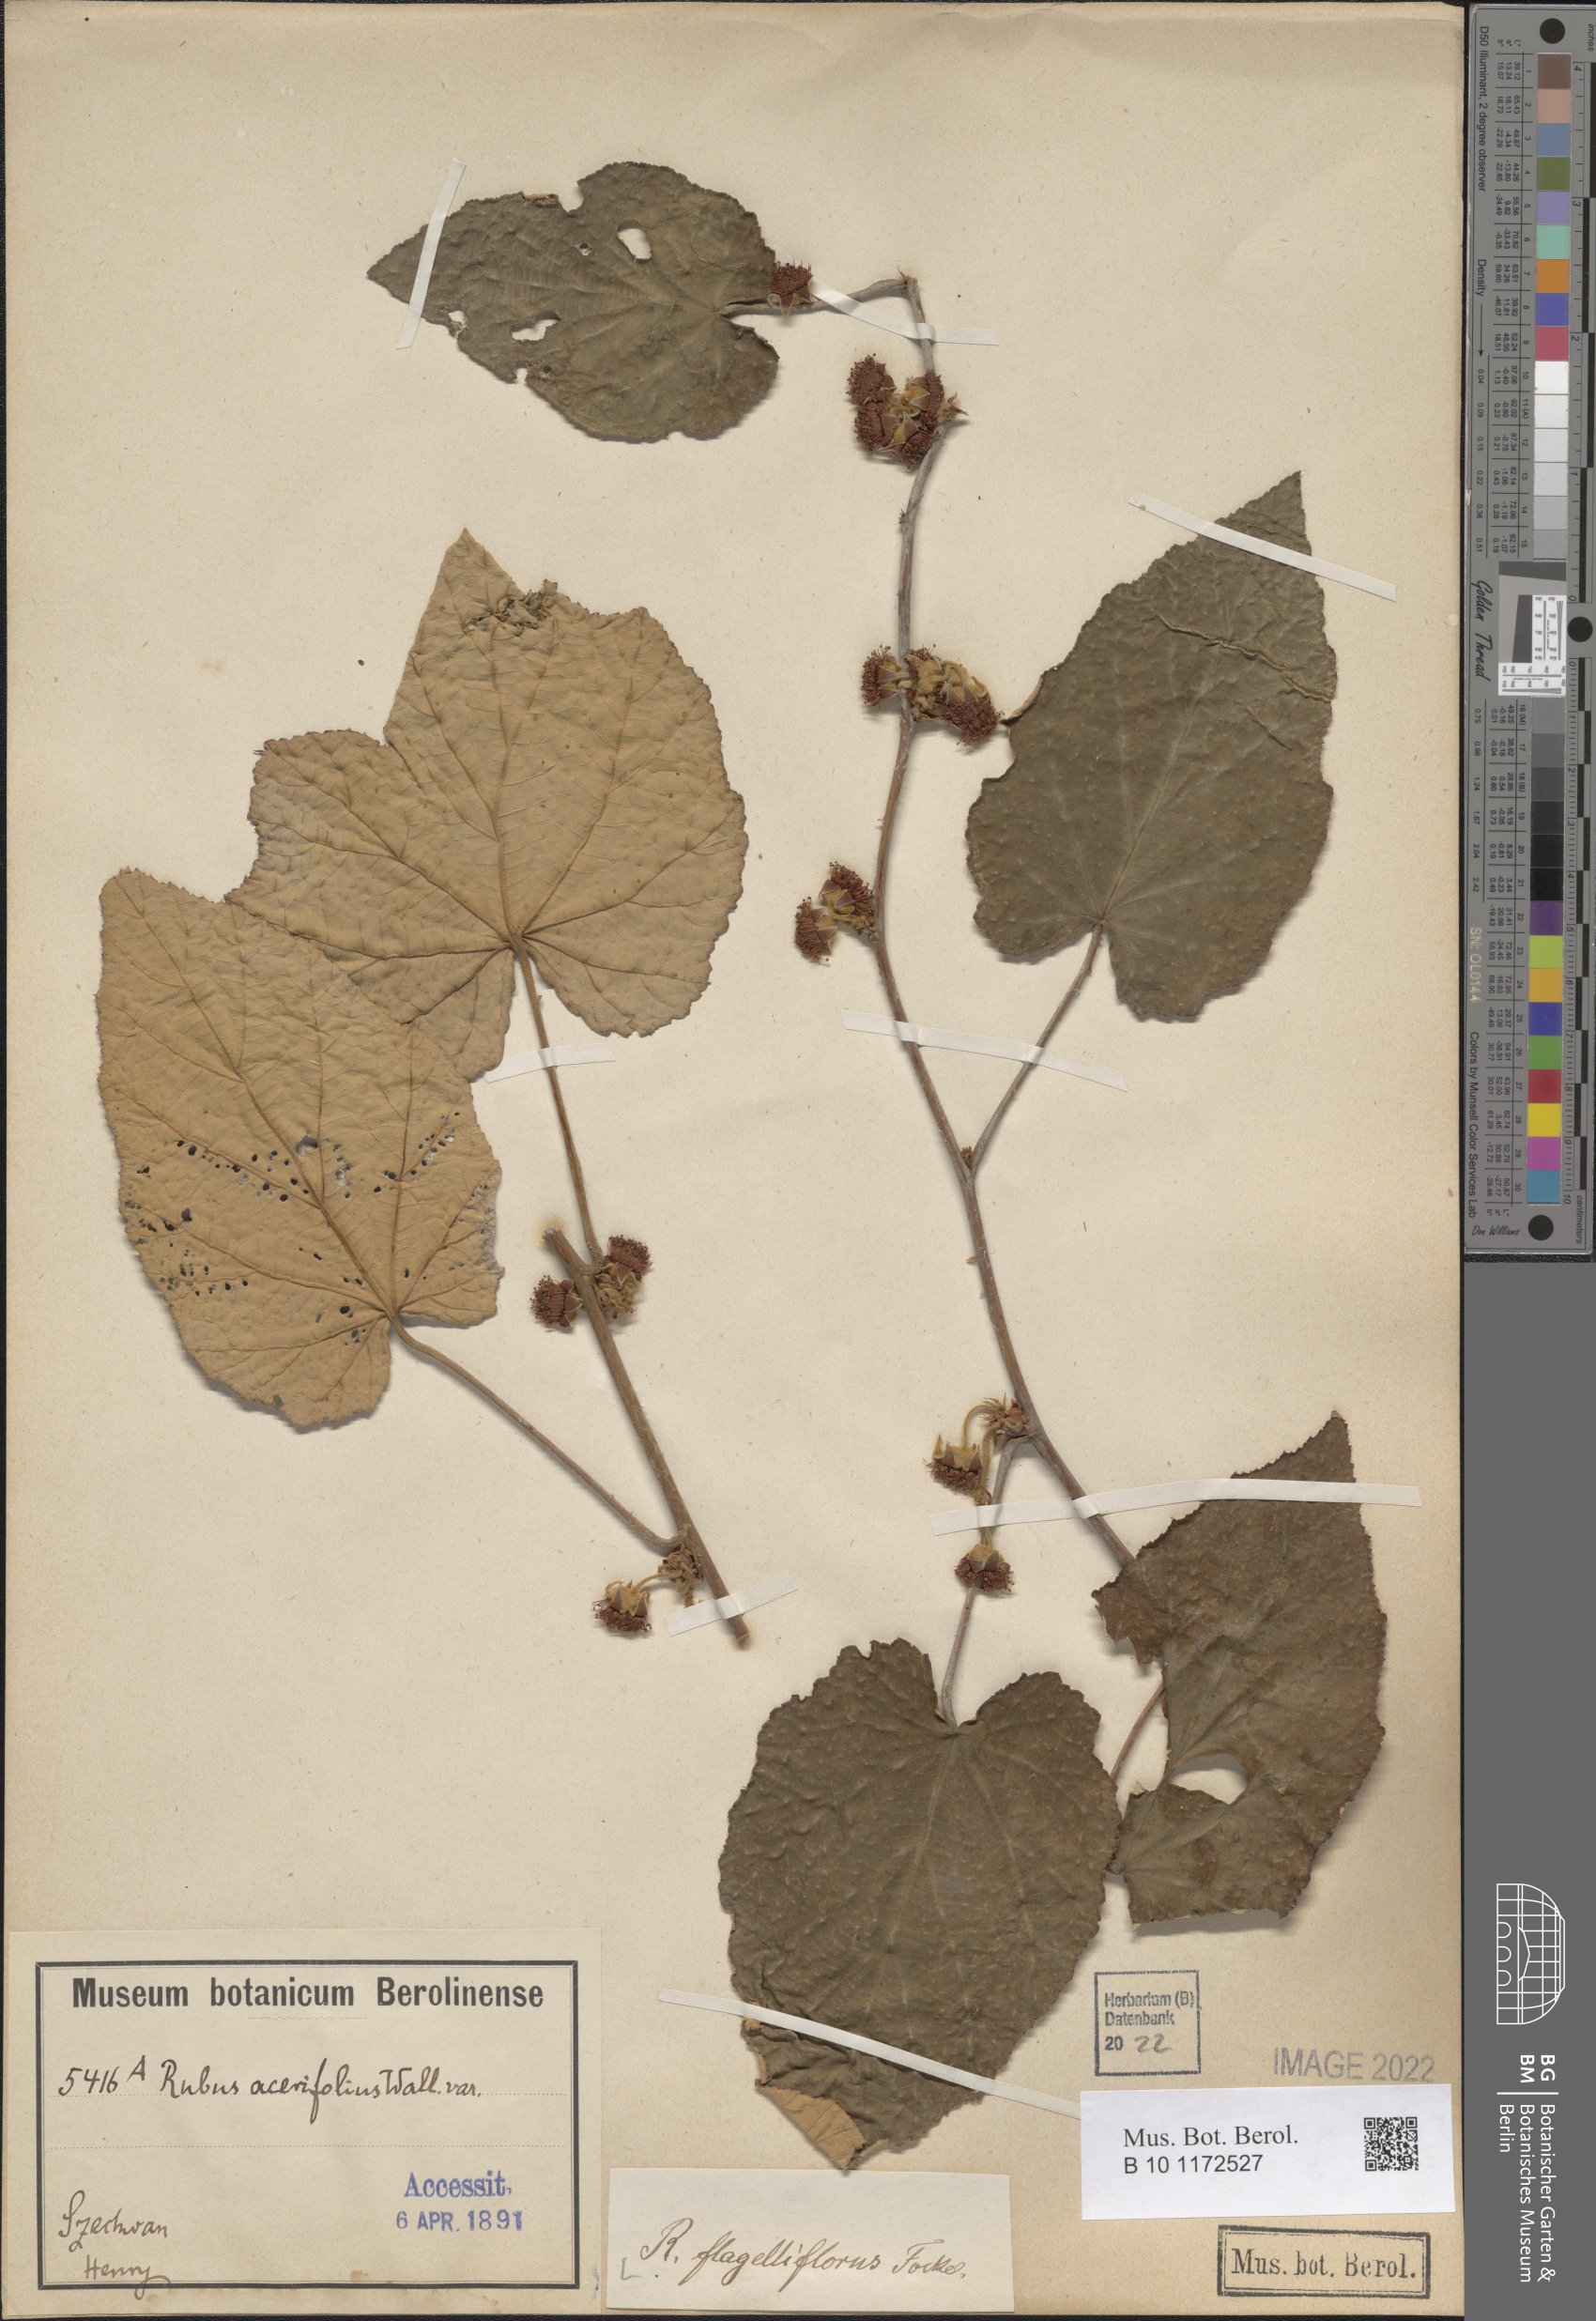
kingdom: Plantae
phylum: Tracheophyta
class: Magnoliopsida
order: Rosales
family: Rosaceae
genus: Rubus
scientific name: Rubus flagelliflorus
